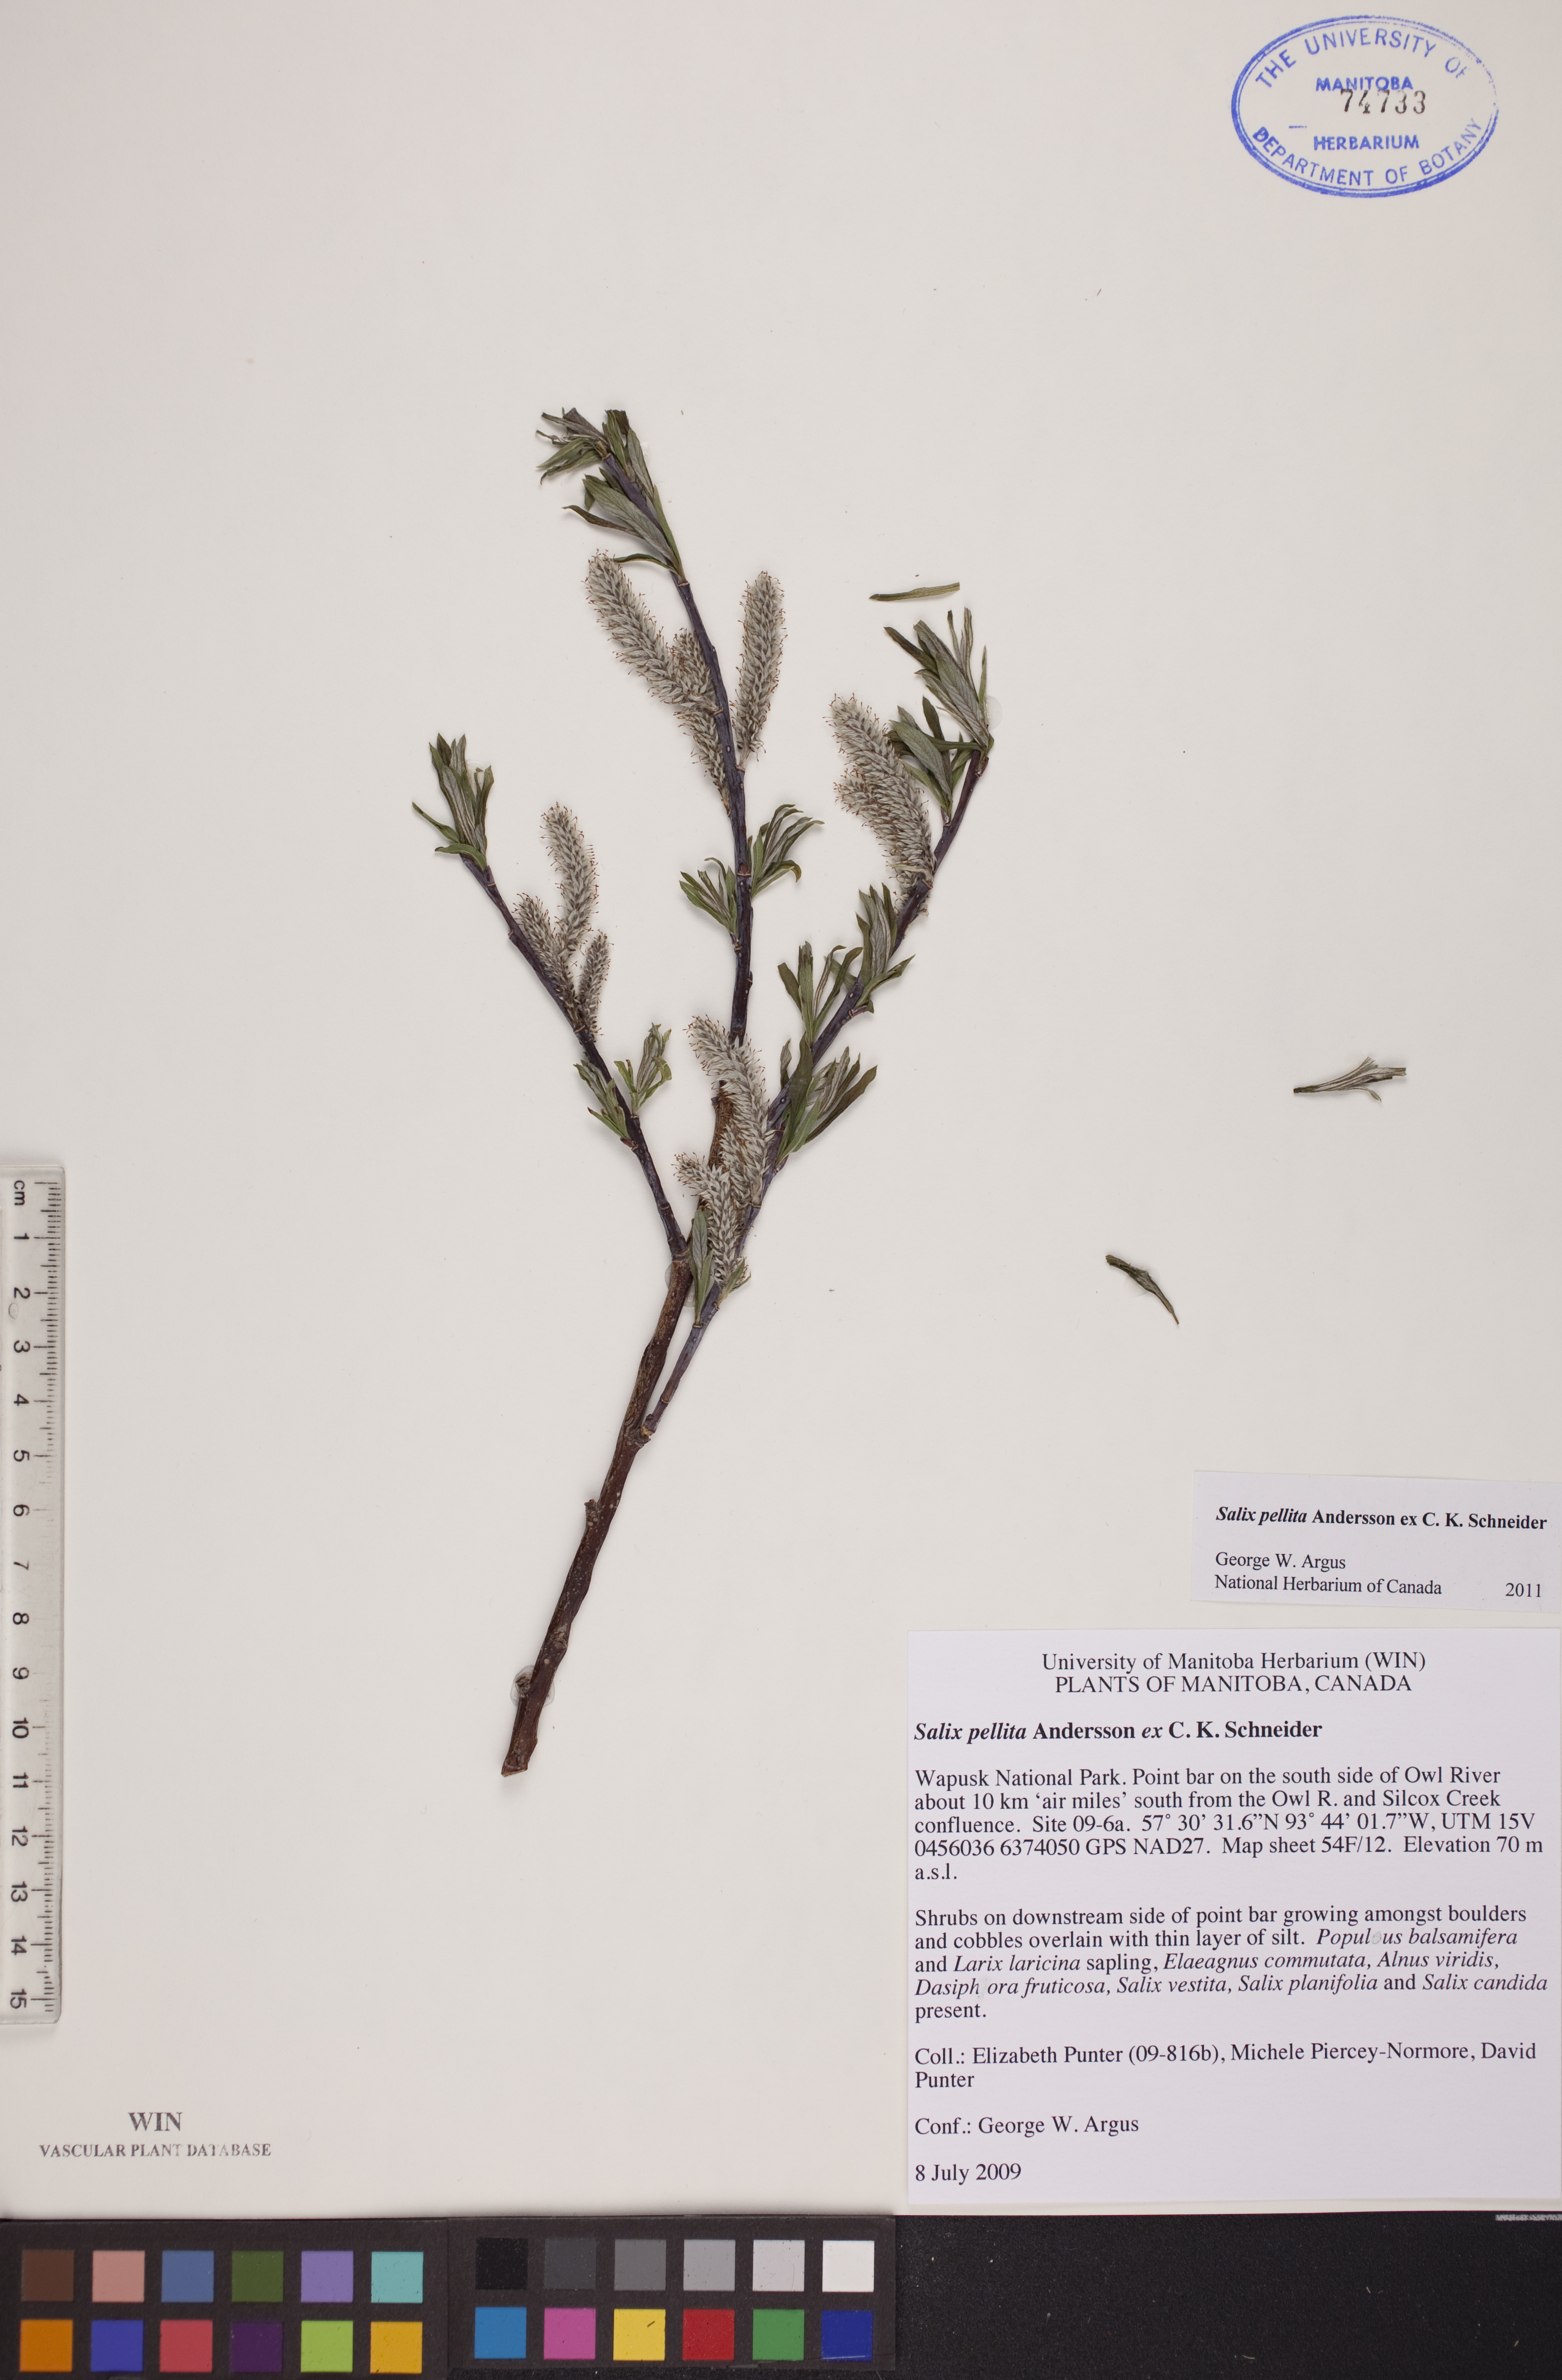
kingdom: Plantae
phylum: Tracheophyta
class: Magnoliopsida
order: Malpighiales
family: Salicaceae
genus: Salix
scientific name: Salix pellita
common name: Satiny willow
